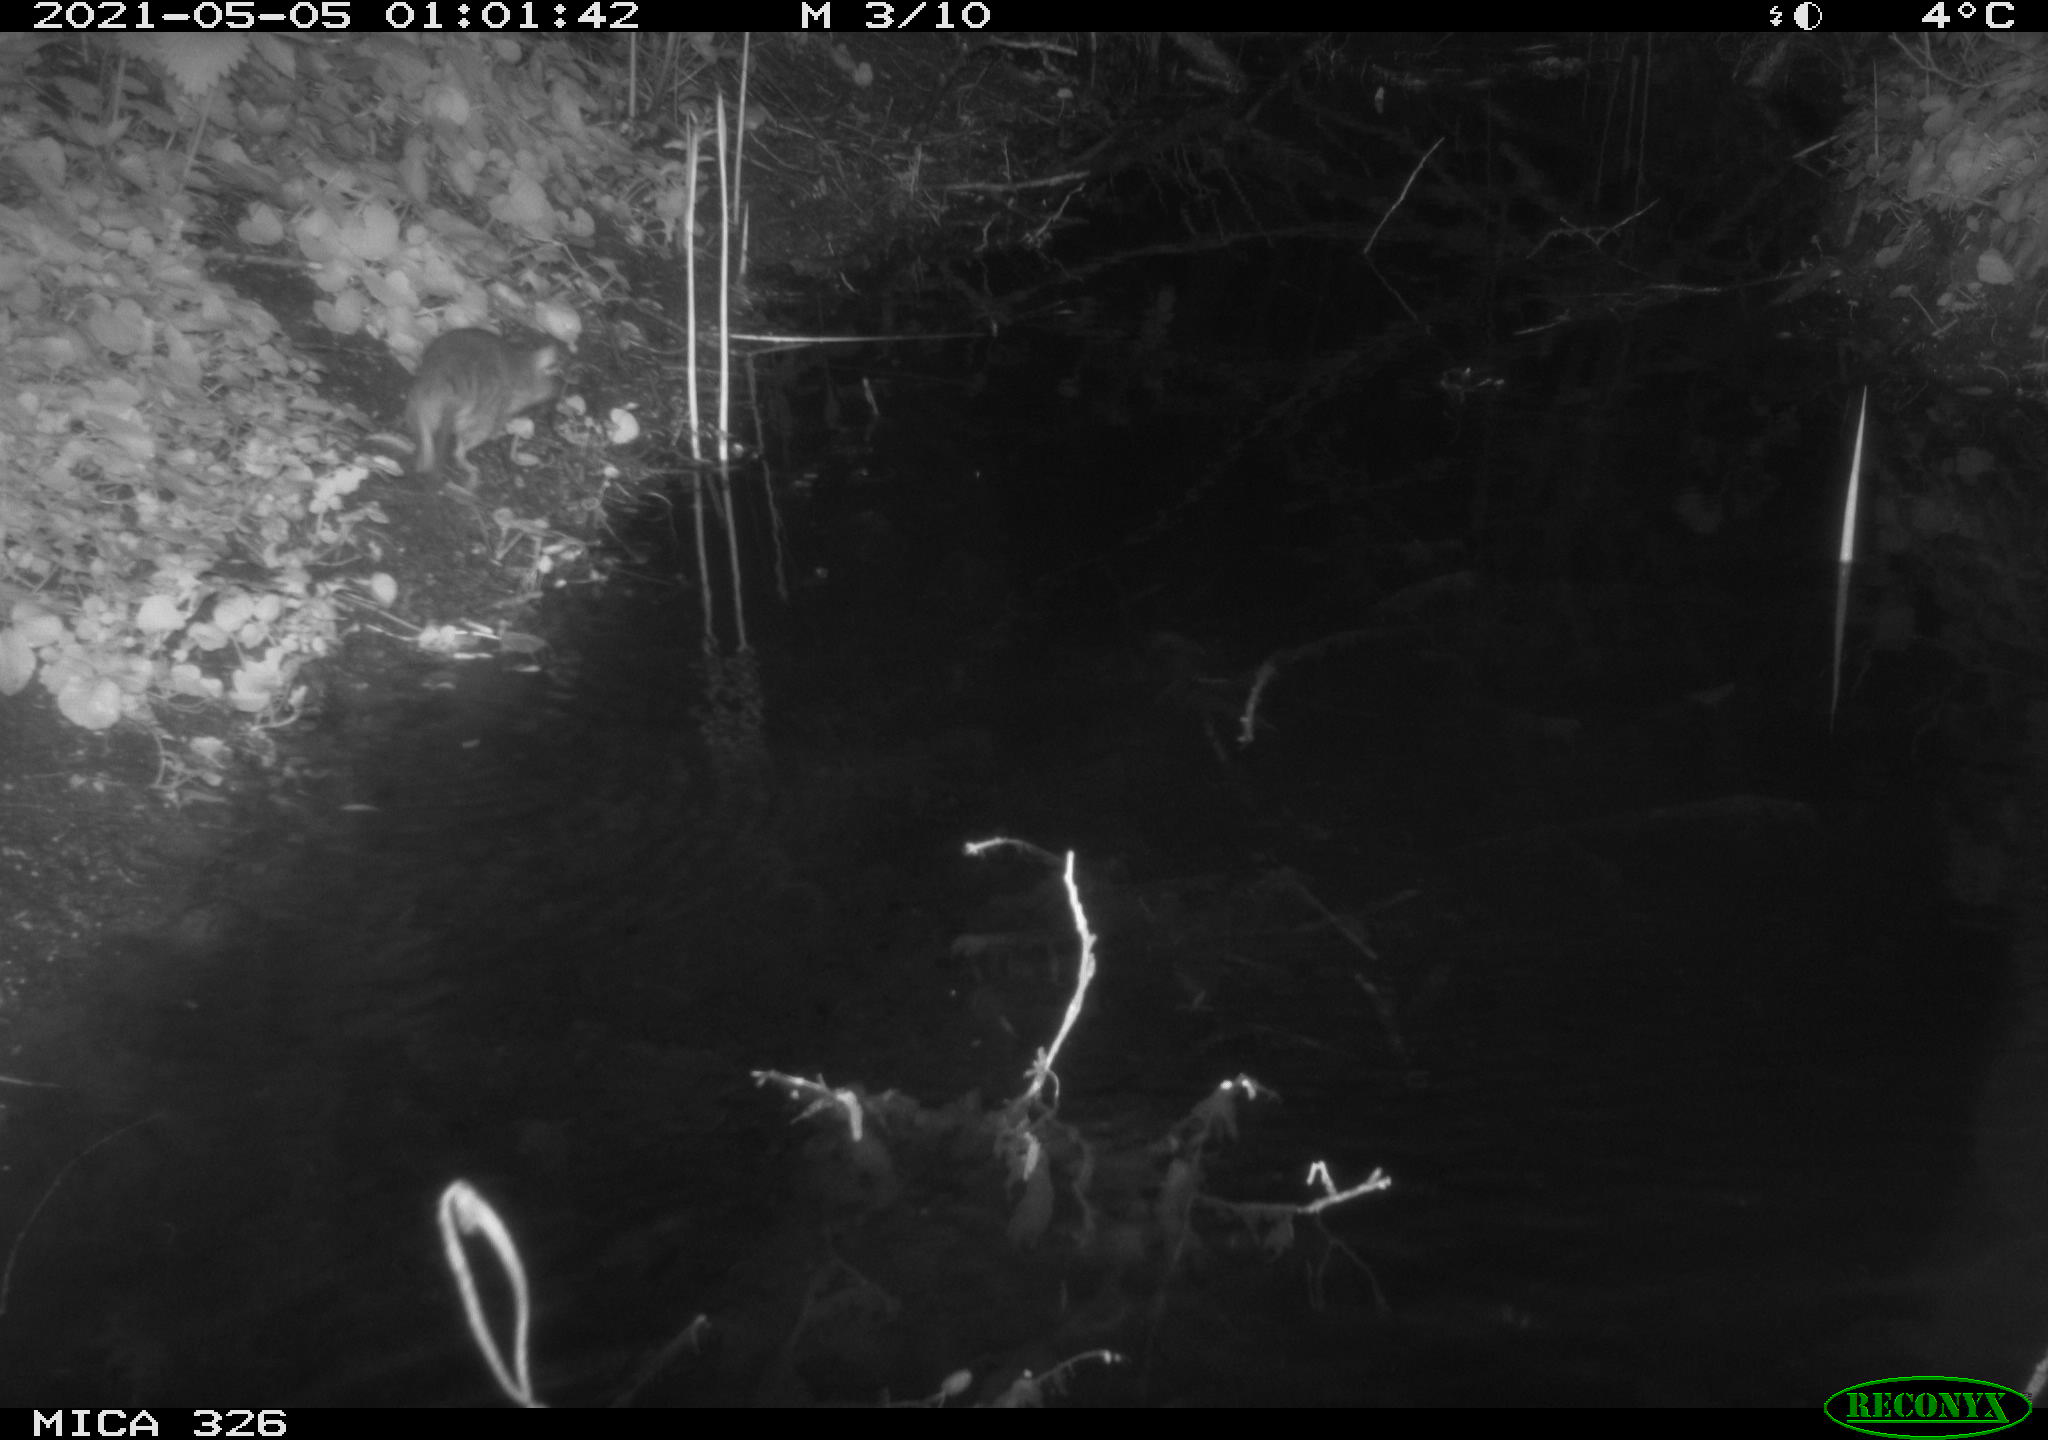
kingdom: Animalia
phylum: Chordata
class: Mammalia
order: Rodentia
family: Muridae
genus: Rattus
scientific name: Rattus norvegicus
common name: Brown rat
